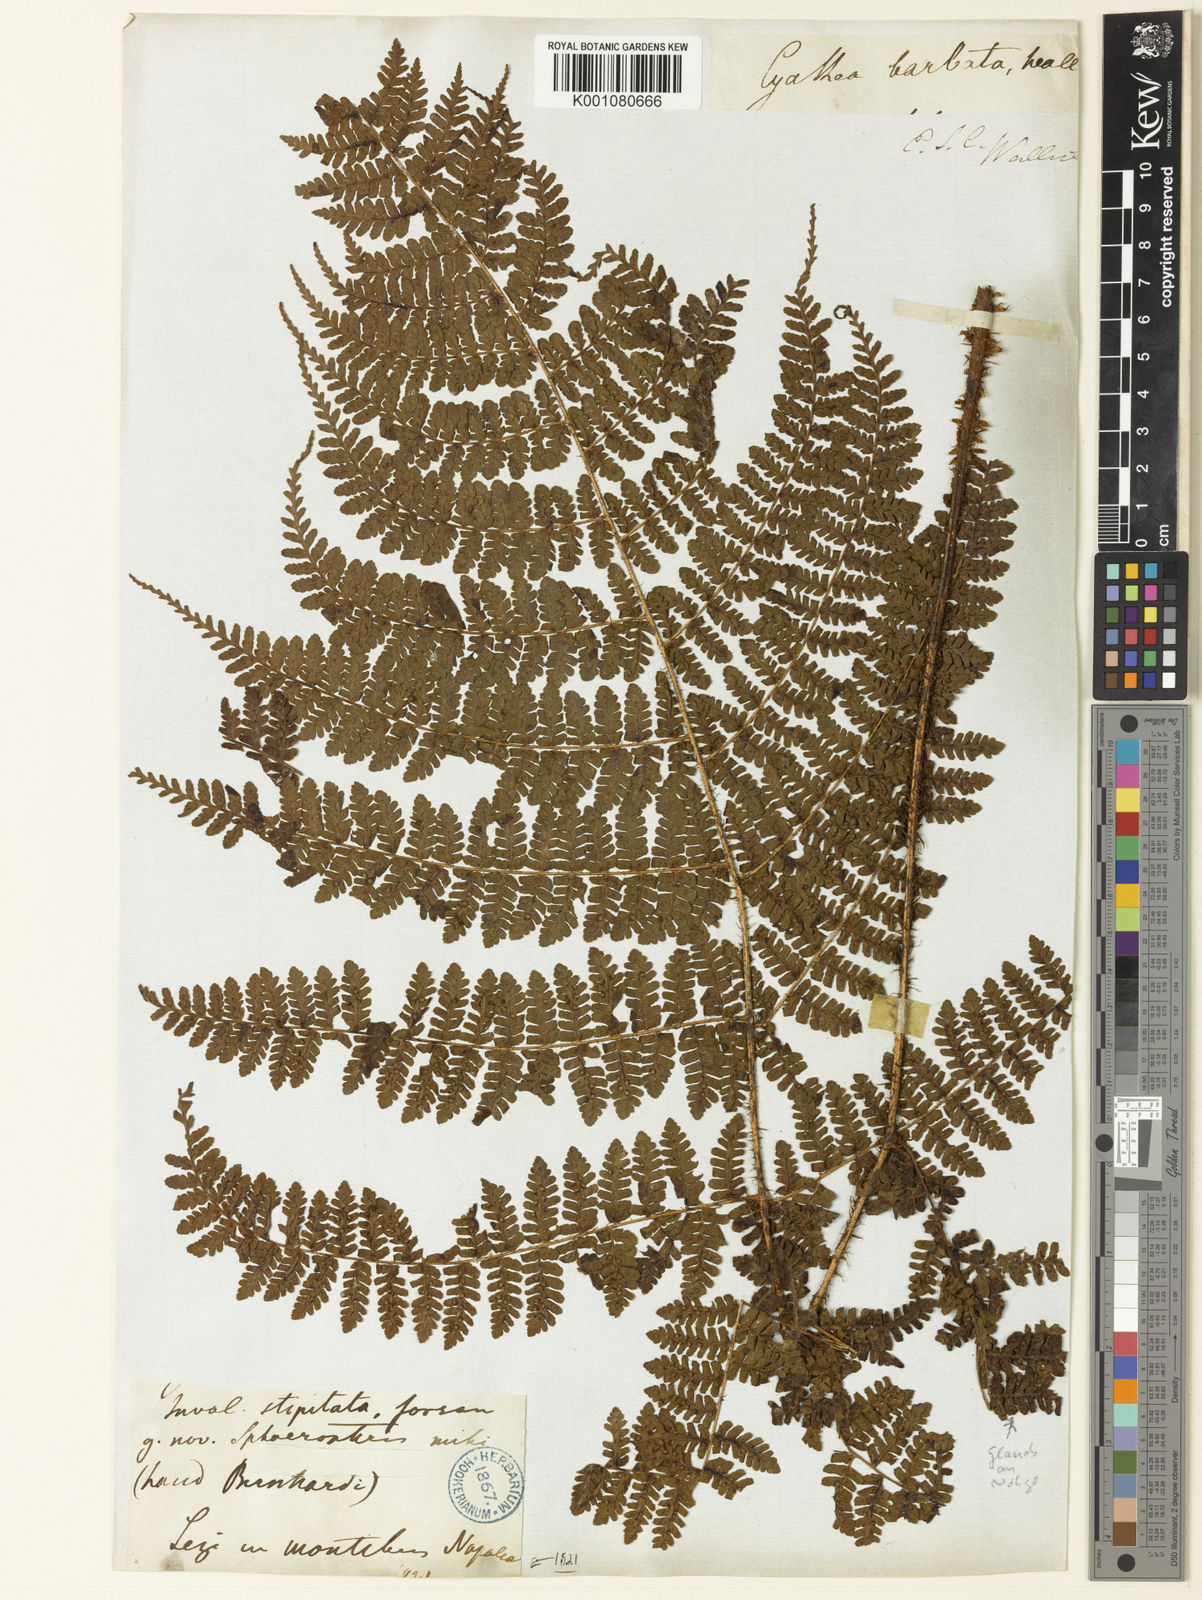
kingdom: Plantae
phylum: Tracheophyta
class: Polypodiopsida
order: Polypodiales
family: Dryopteridaceae
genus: Dryopteris
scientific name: Dryopteris peranema
